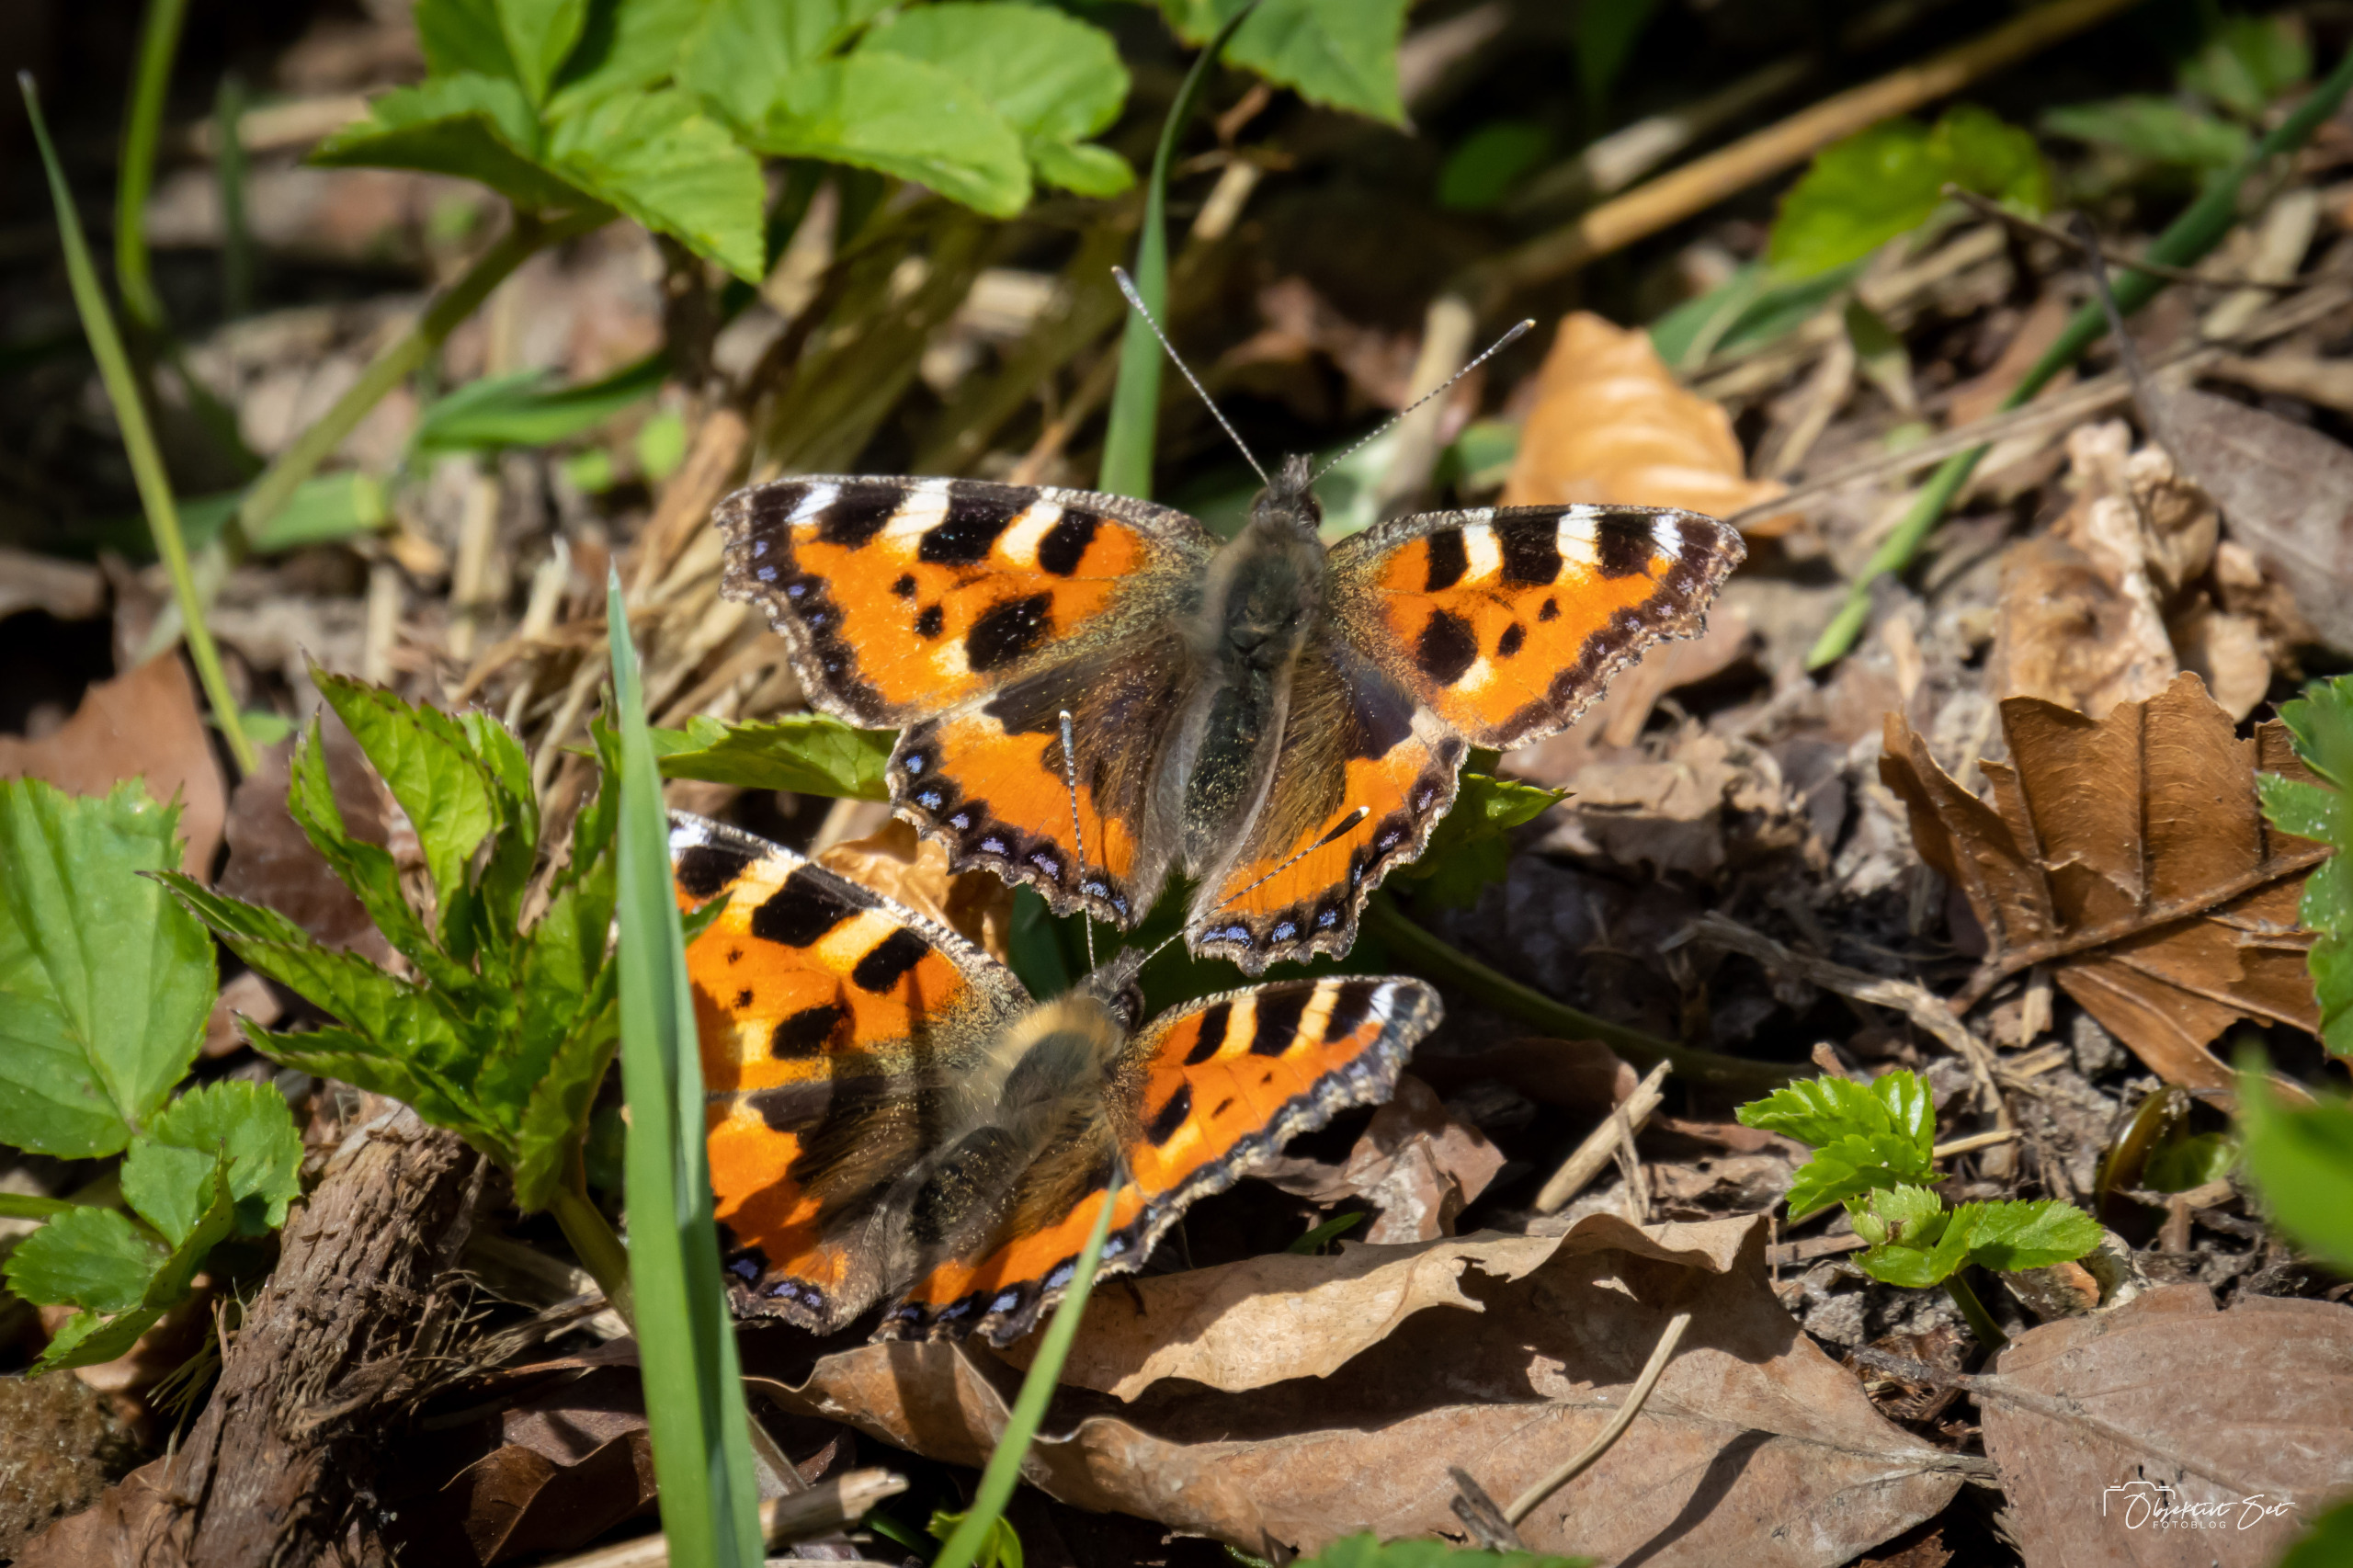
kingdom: Animalia
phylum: Arthropoda
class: Insecta
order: Lepidoptera
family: Nymphalidae
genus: Aglais
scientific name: Aglais urticae
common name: Nældens takvinge
